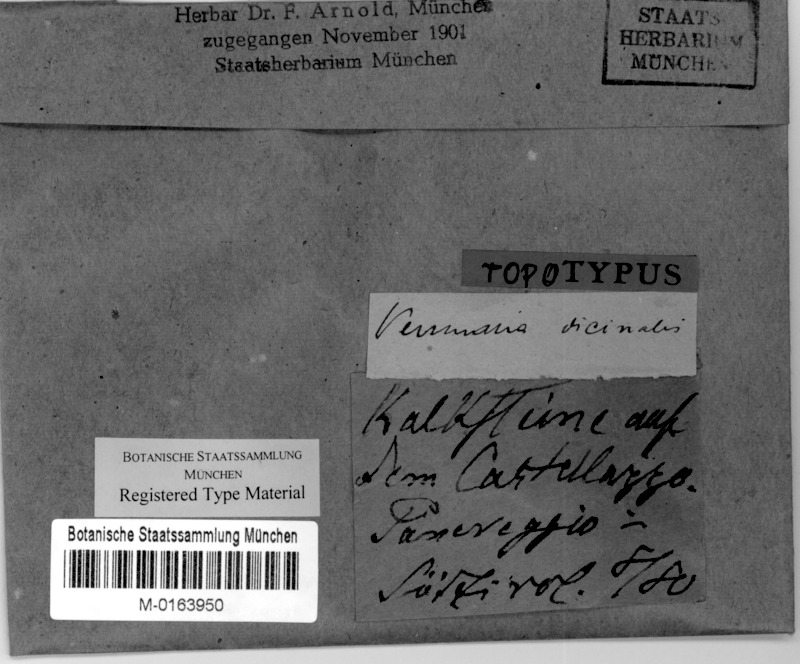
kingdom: Fungi
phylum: Ascomycota
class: Eurotiomycetes
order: Verrucariales
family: Verrucariaceae
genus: Verrucaria
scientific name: Verrucaria vicinalis
